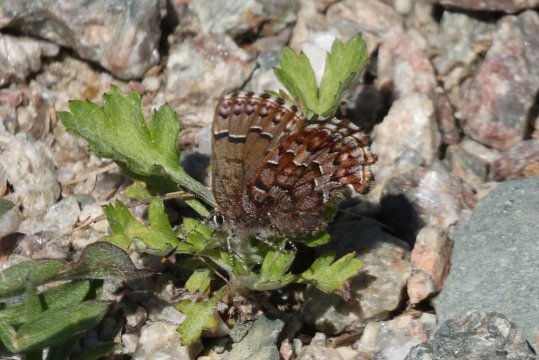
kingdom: Animalia
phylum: Arthropoda
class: Insecta
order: Lepidoptera
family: Lycaenidae
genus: Incisalia
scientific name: Incisalia niphon
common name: Eastern Pine Elfin
